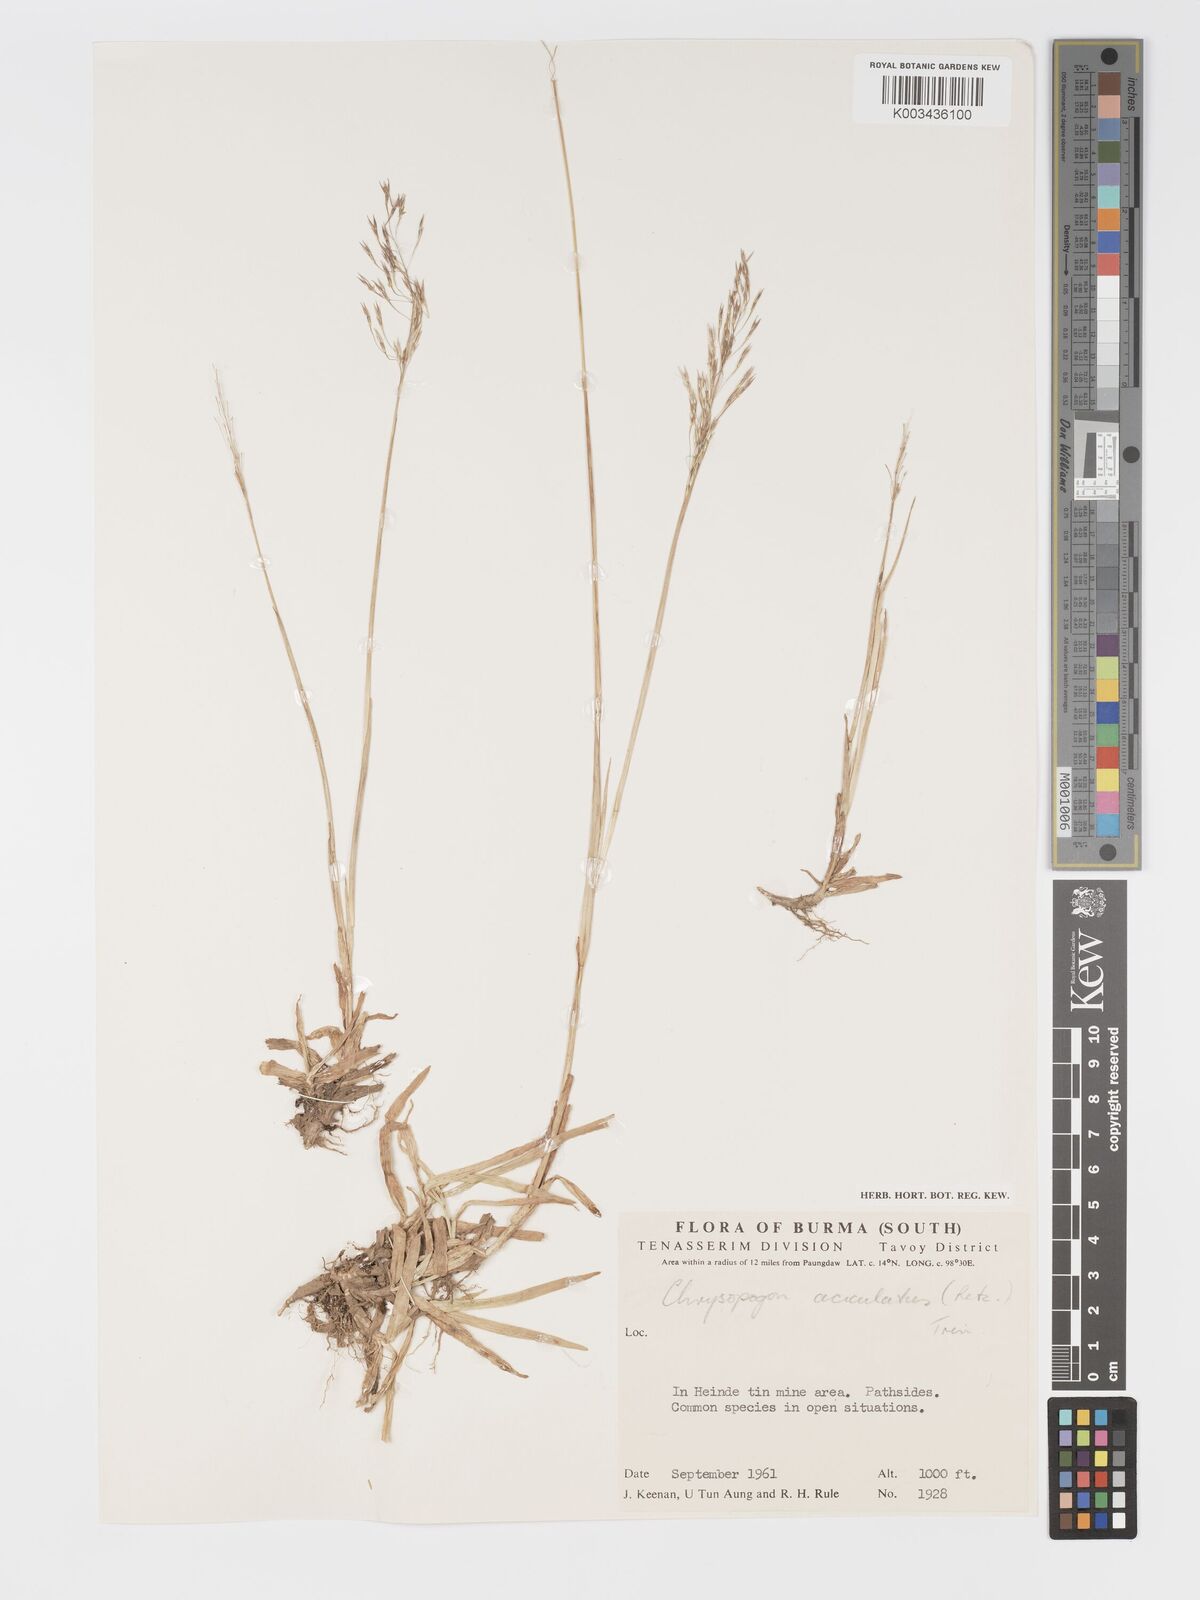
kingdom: Plantae
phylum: Tracheophyta
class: Liliopsida
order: Poales
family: Poaceae
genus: Chrysopogon
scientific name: Chrysopogon aciculatus
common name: Pilipiliula
